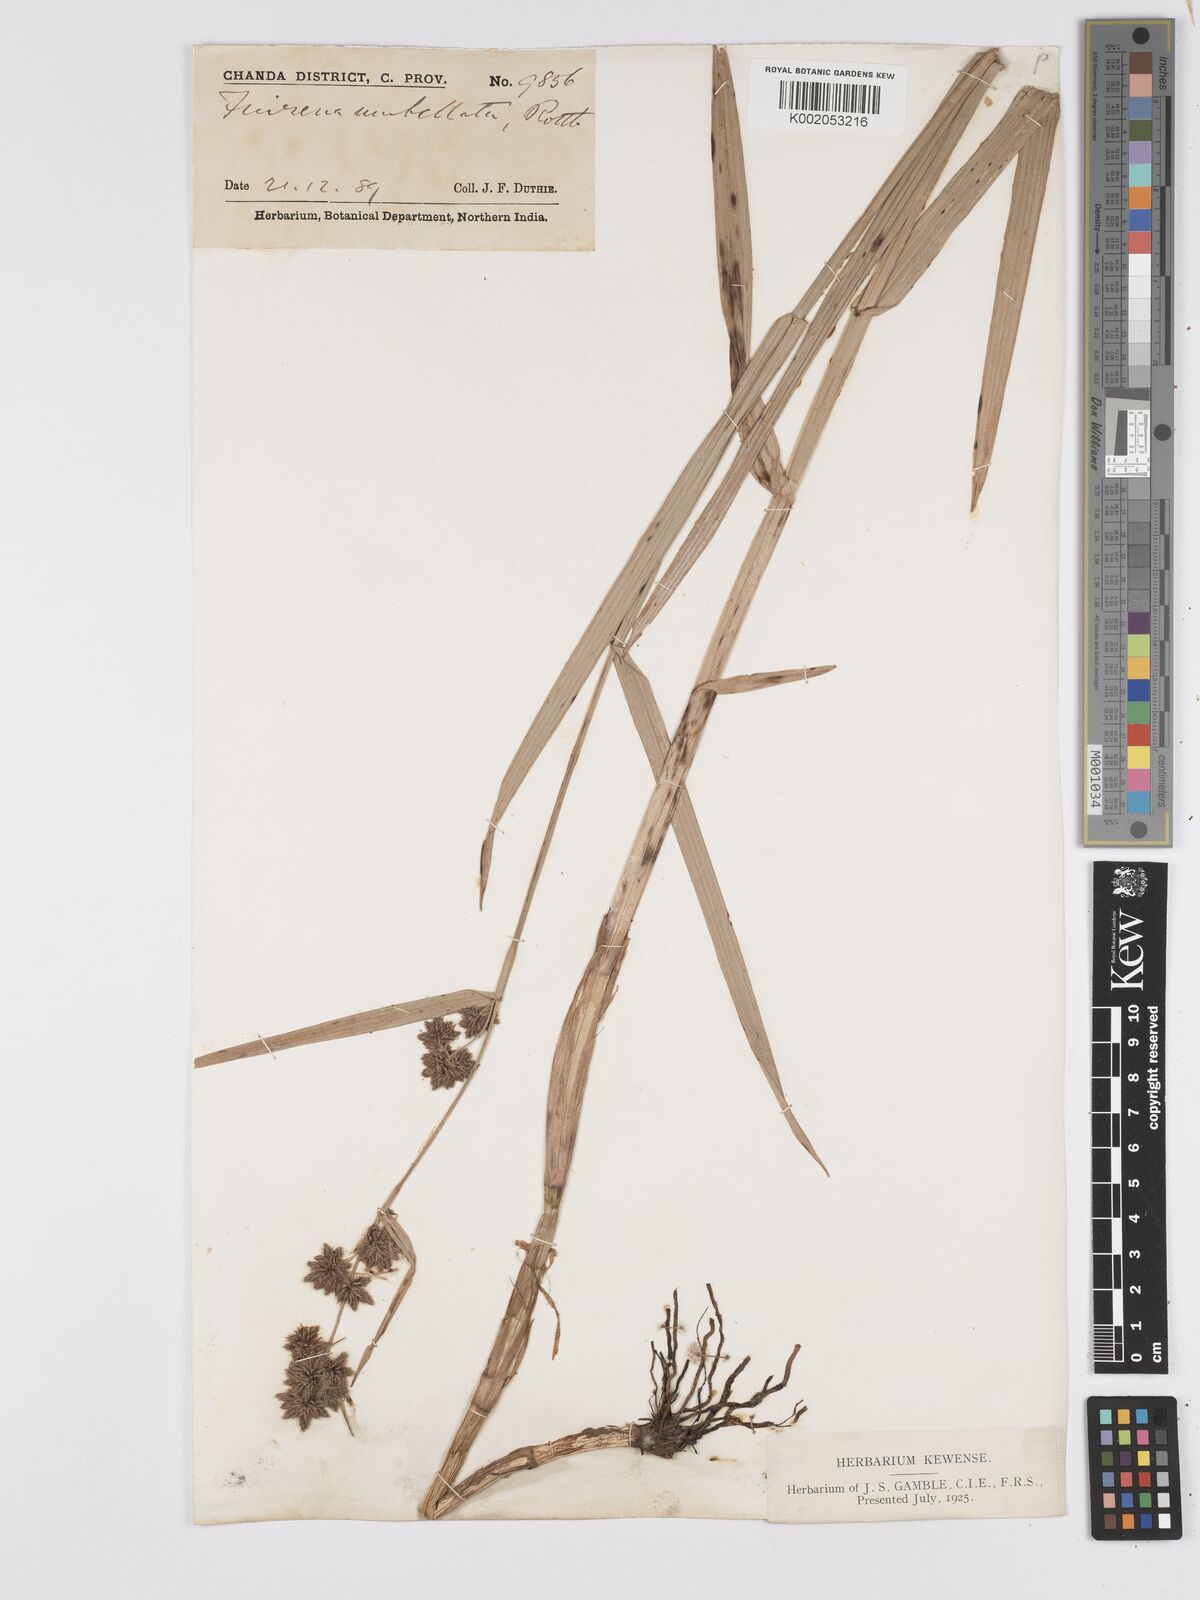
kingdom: Plantae
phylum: Tracheophyta
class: Liliopsida
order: Poales
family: Cyperaceae
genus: Fuirena
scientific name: Fuirena umbellata
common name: Yefen
